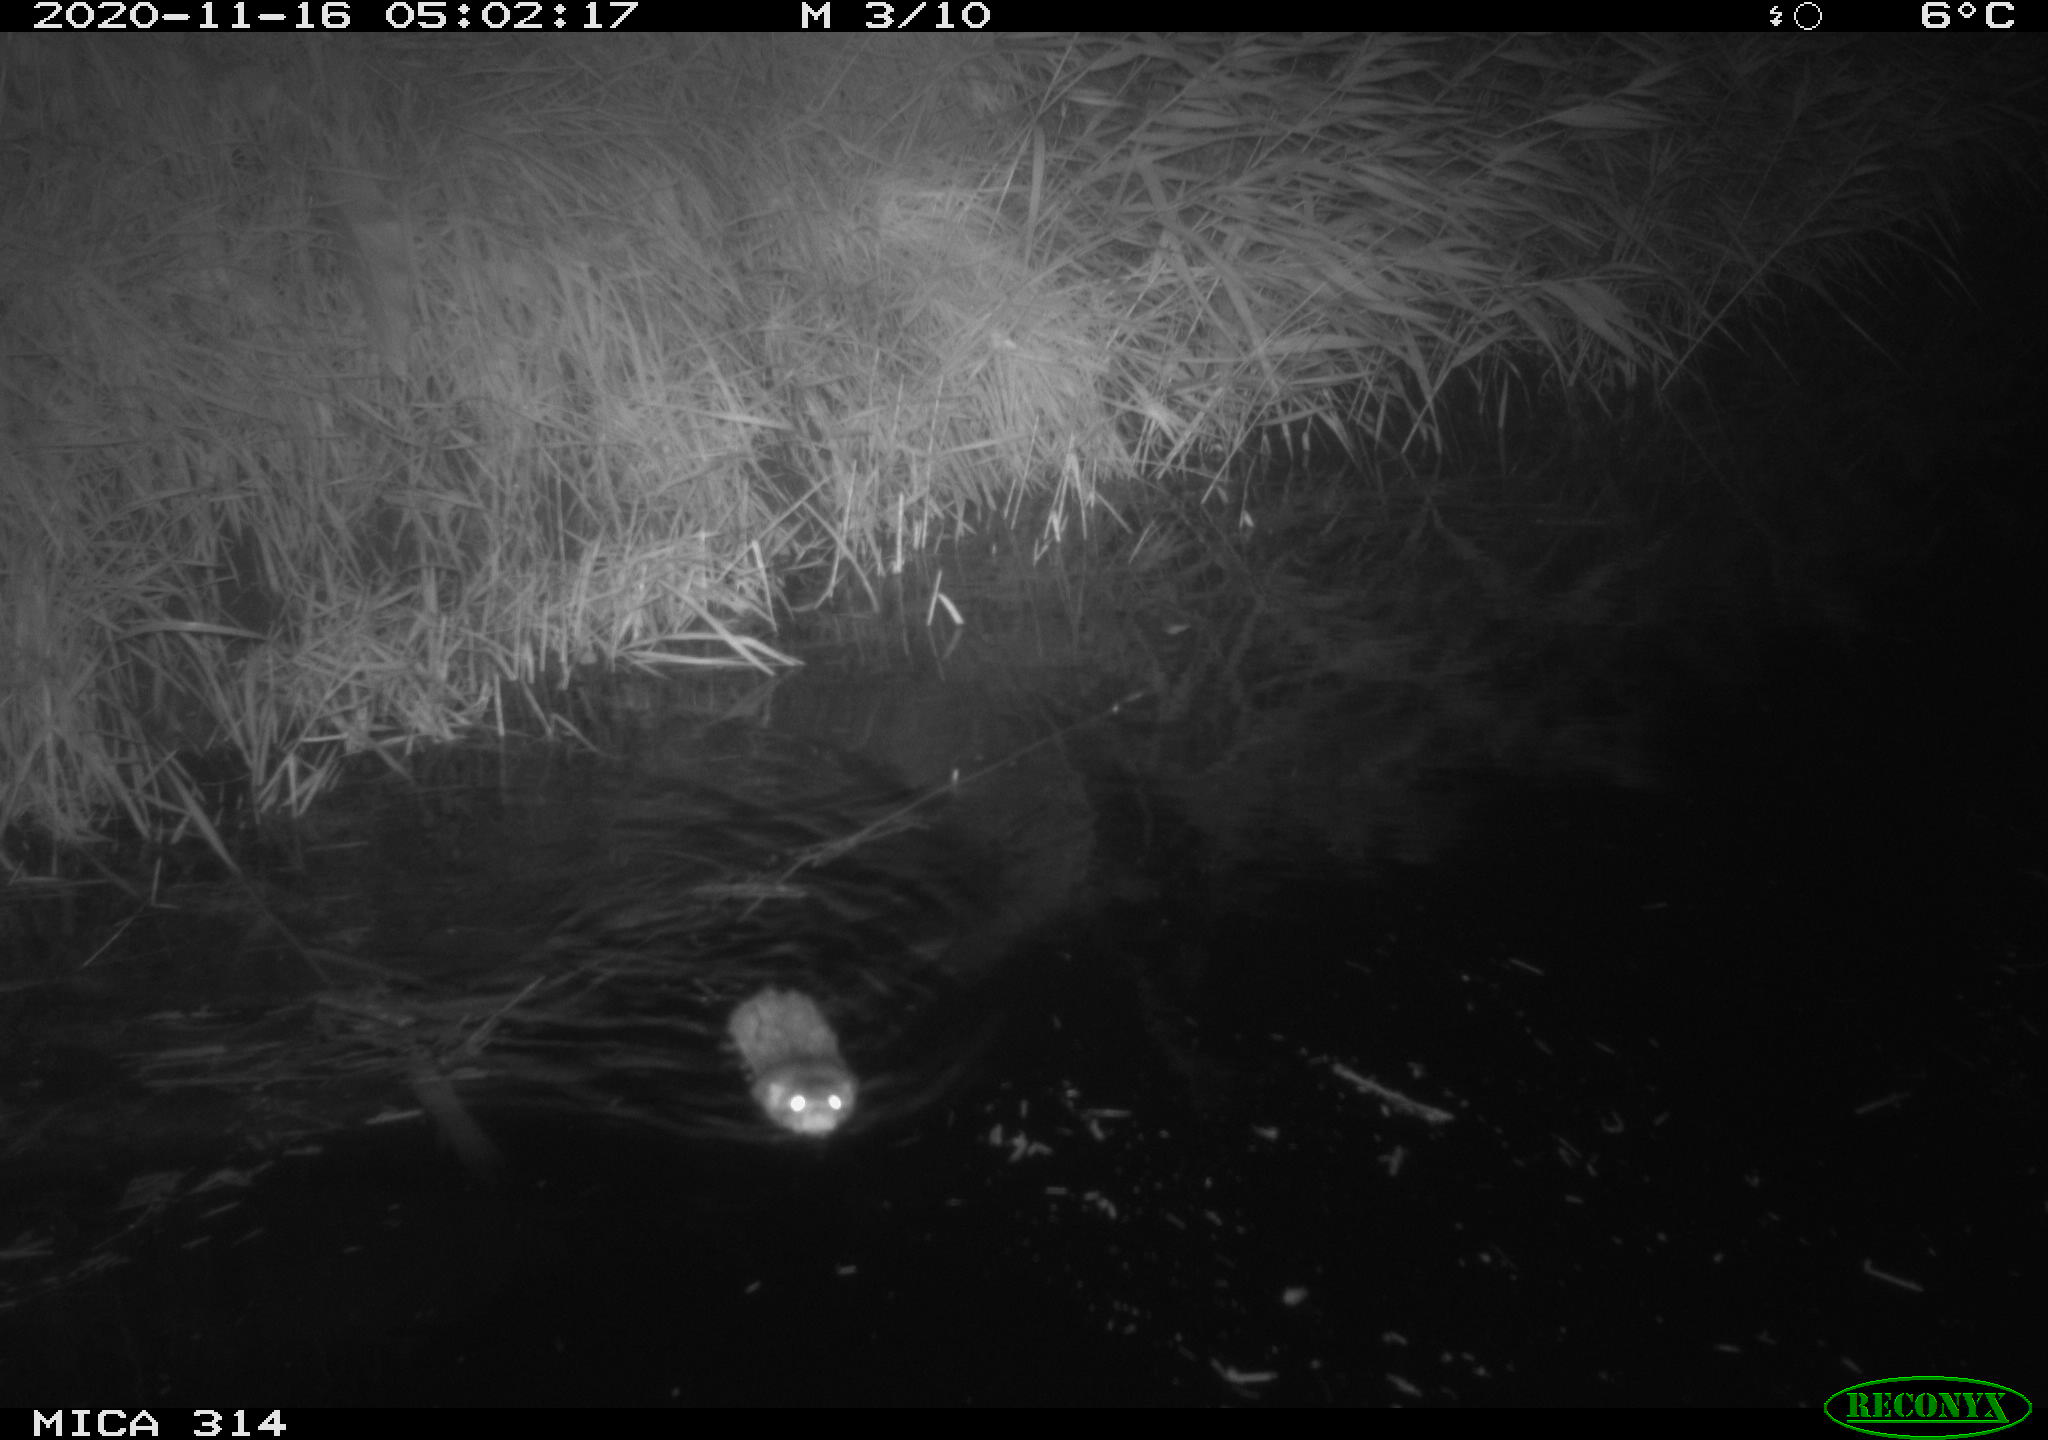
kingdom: Animalia
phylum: Chordata
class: Mammalia
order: Rodentia
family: Muridae
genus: Rattus
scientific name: Rattus norvegicus
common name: Brown rat
